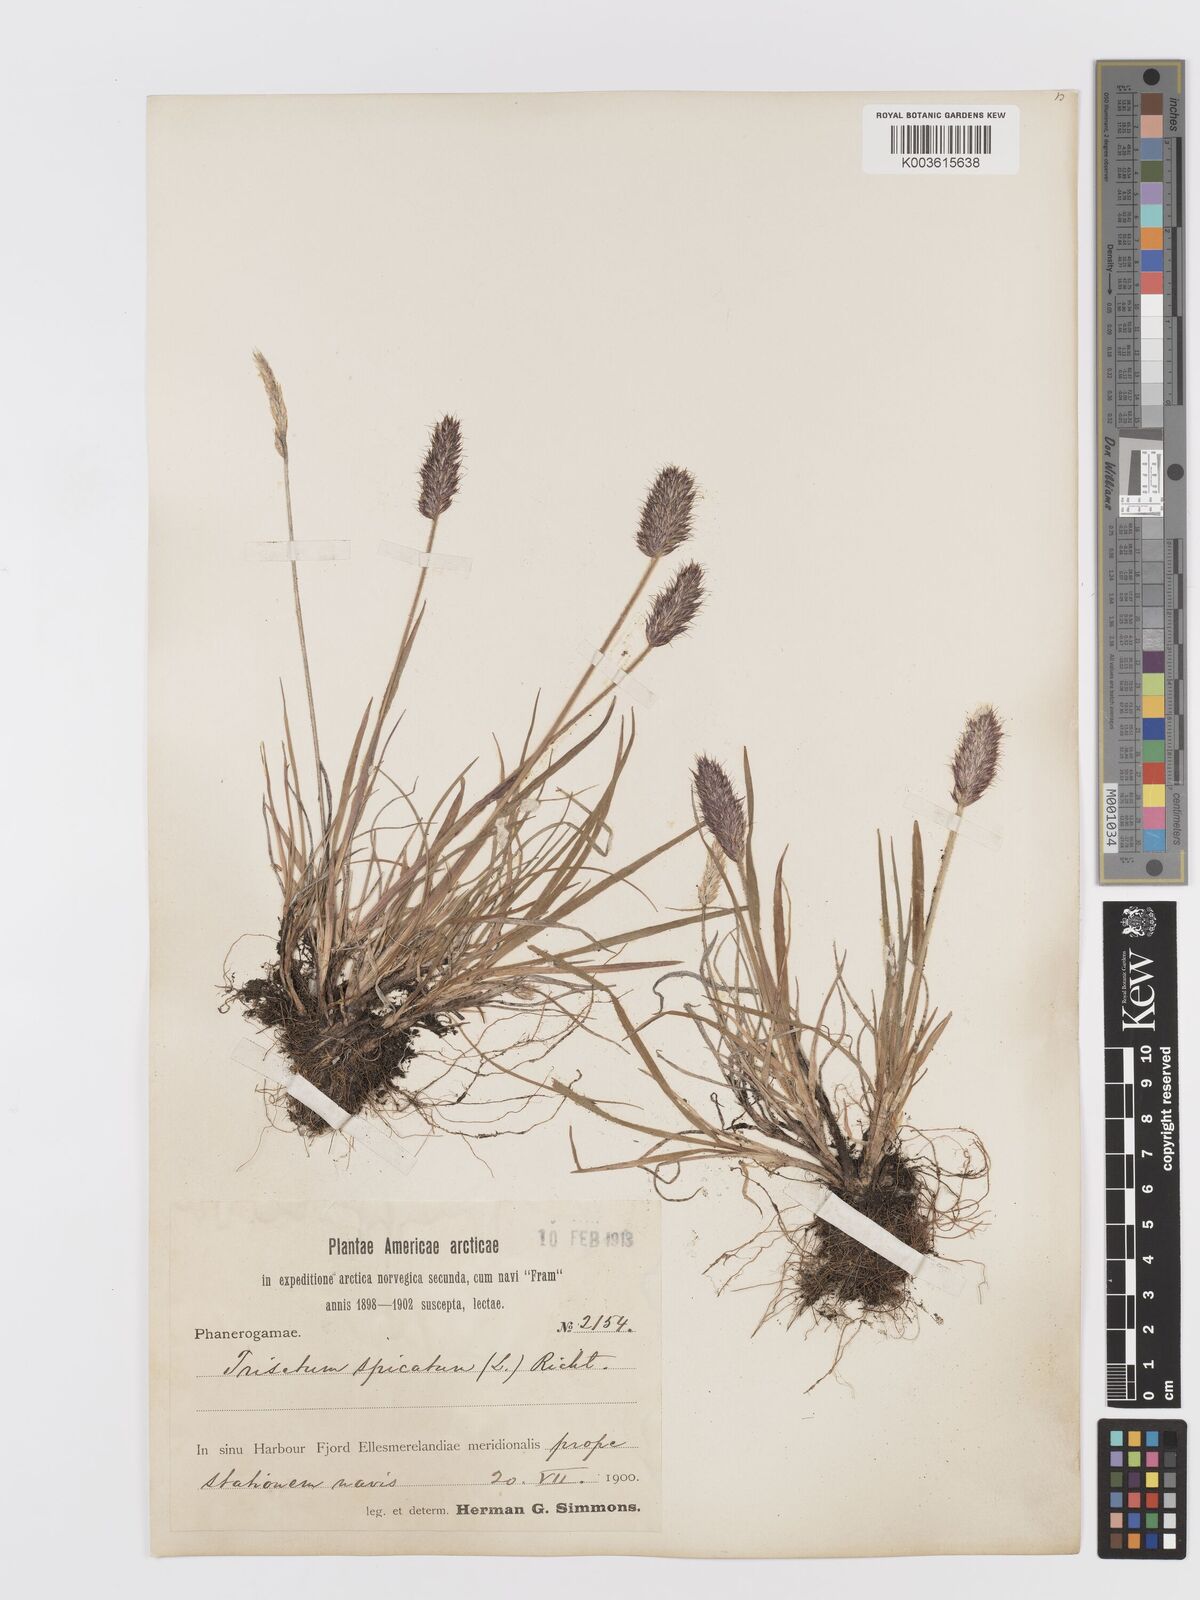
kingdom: Plantae
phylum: Tracheophyta
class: Liliopsida
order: Poales
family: Poaceae
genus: Koeleria
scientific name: Koeleria spicata
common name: Mountain trisetum
